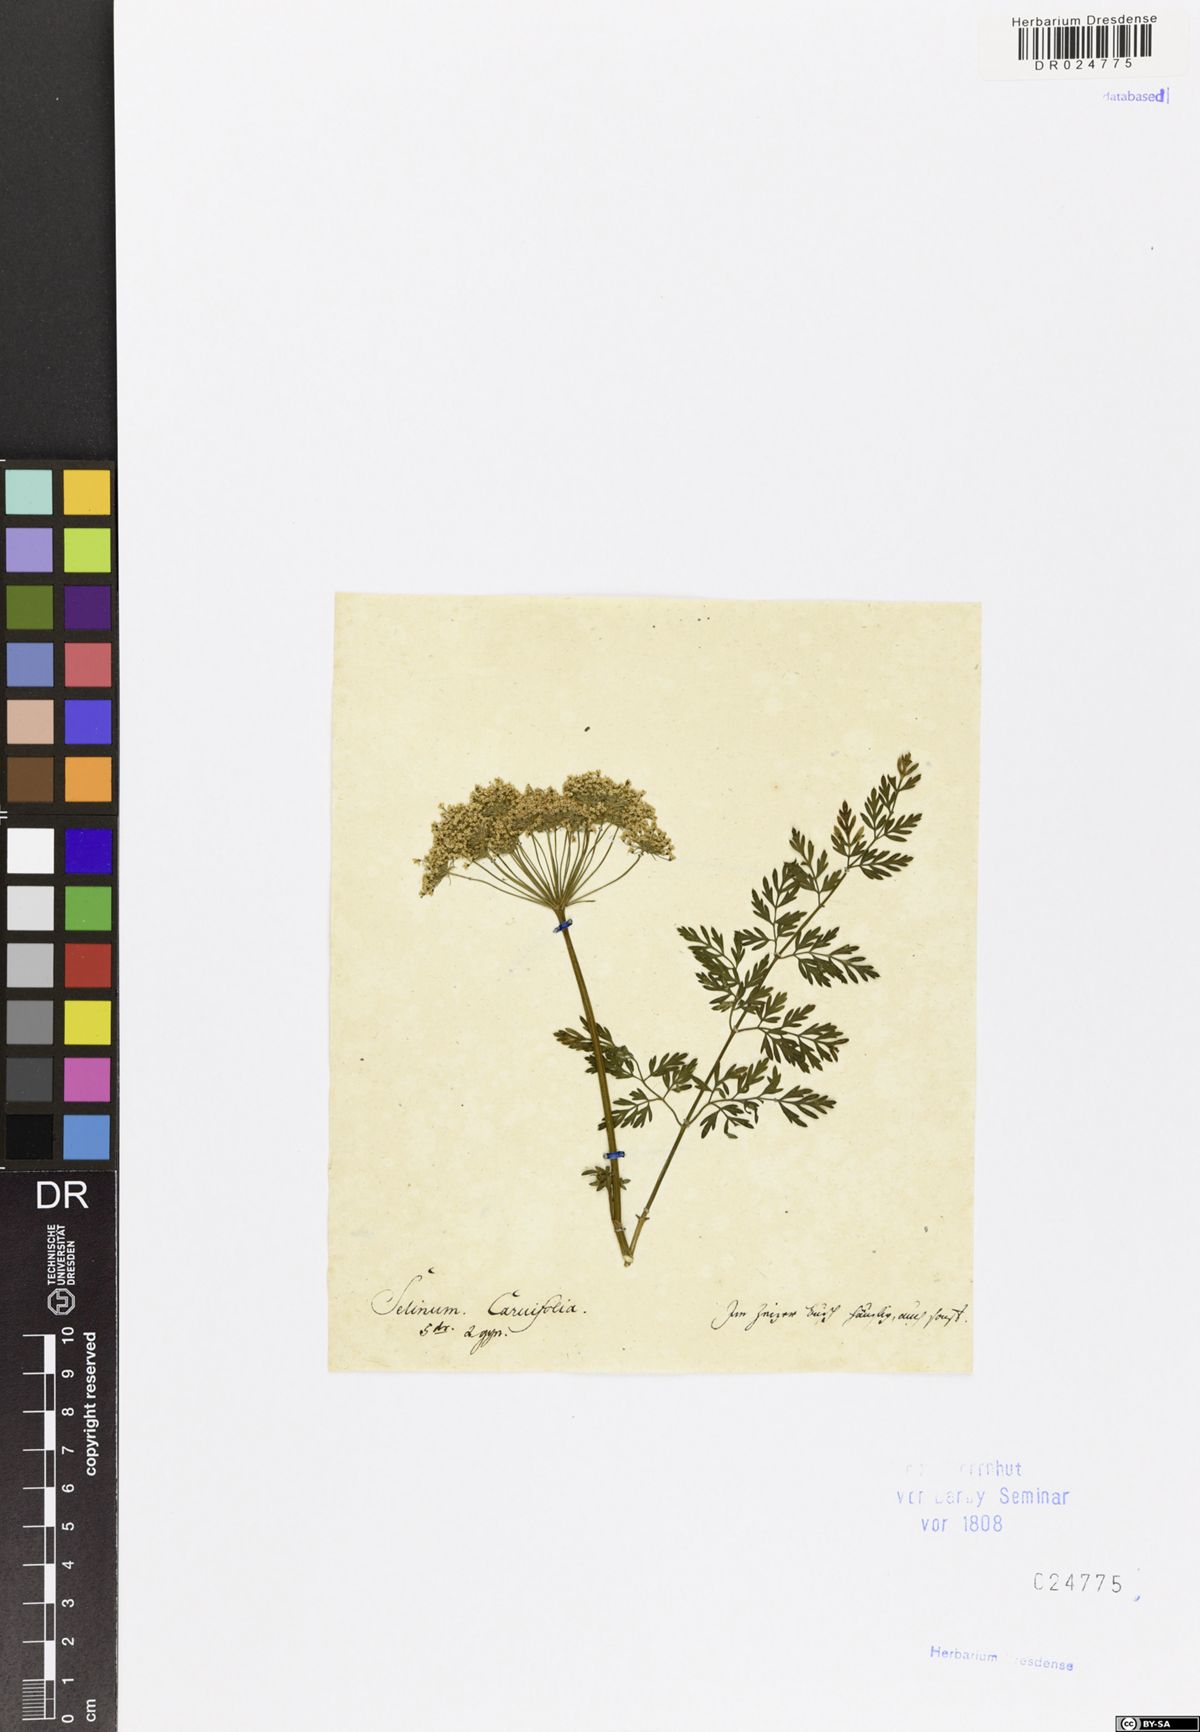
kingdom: Plantae
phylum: Tracheophyta
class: Magnoliopsida
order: Apiales
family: Apiaceae
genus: Selinum
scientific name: Selinum carvifolia
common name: Cambridge milk-parsley
